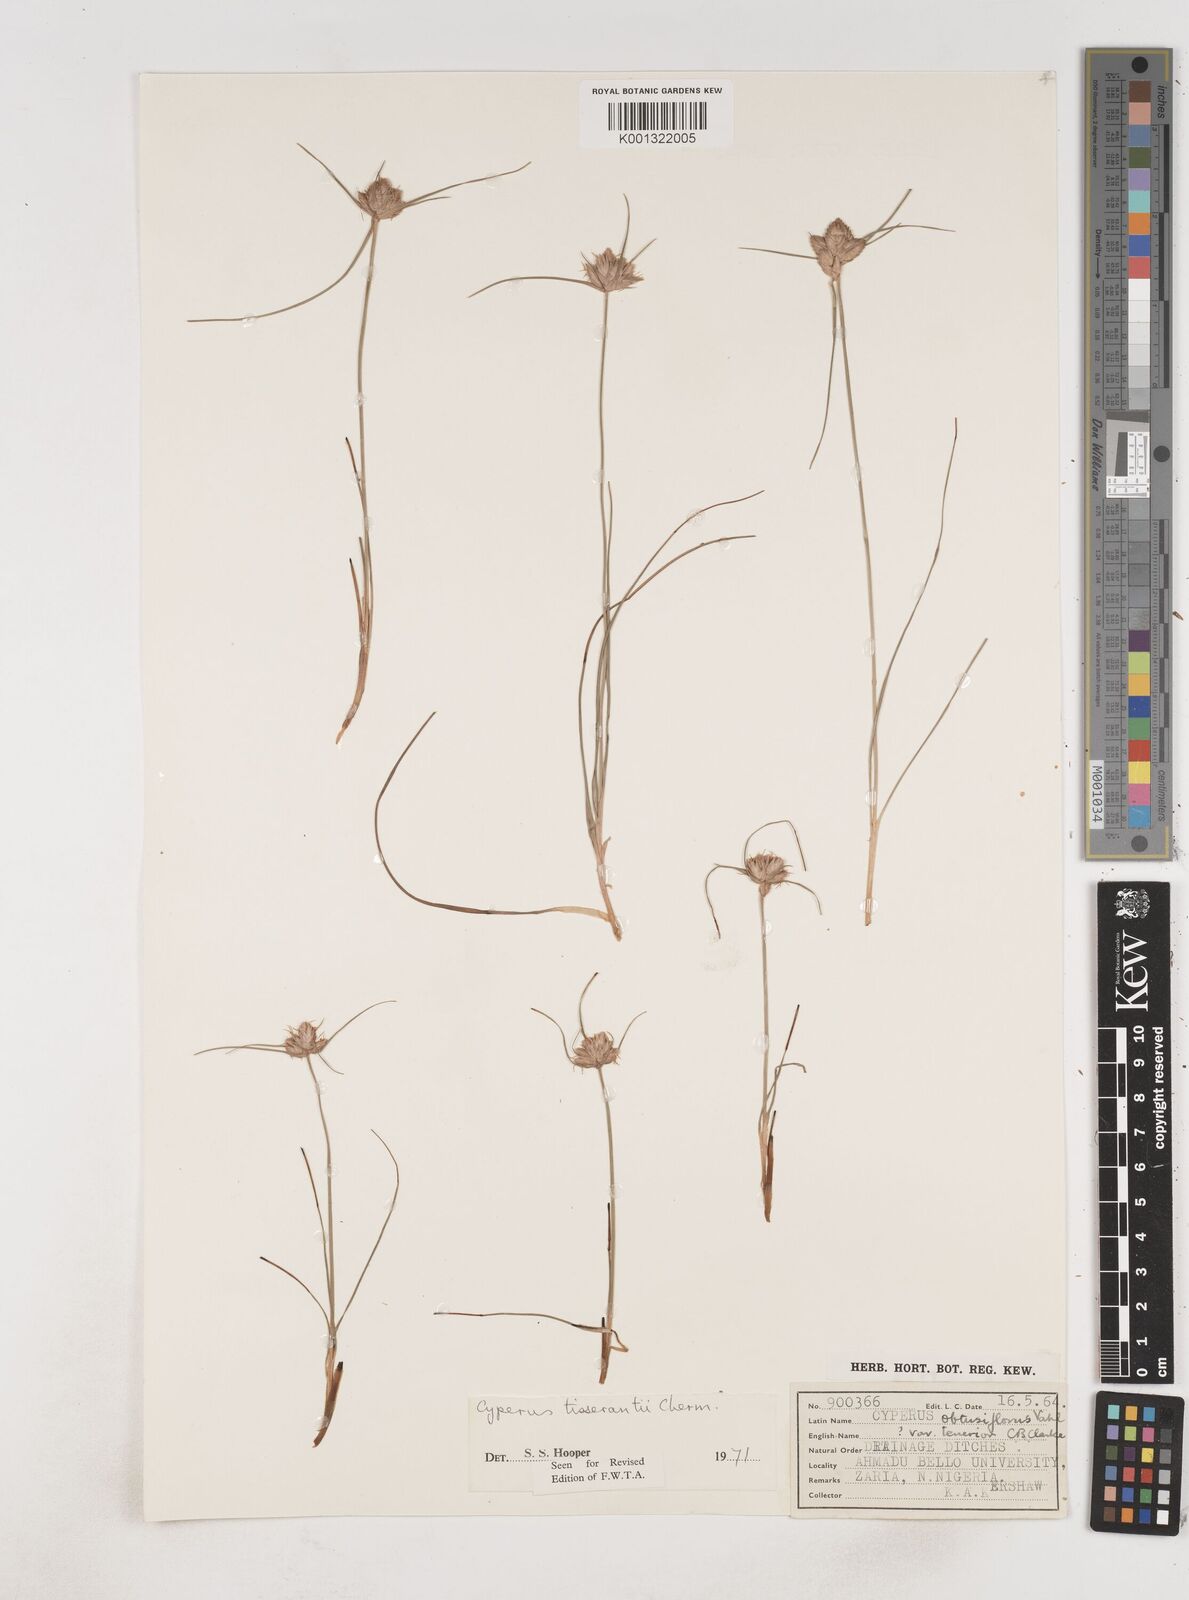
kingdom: Plantae
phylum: Tracheophyta
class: Liliopsida
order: Poales
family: Cyperaceae
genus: Cyperus
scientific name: Cyperus niveus
